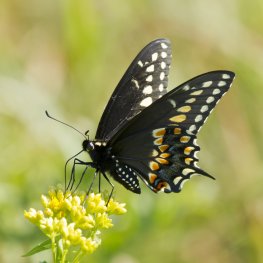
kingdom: Animalia
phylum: Arthropoda
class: Insecta
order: Lepidoptera
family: Papilionidae
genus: Papilio
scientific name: Papilio polyxenes
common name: Black Swallowtail
